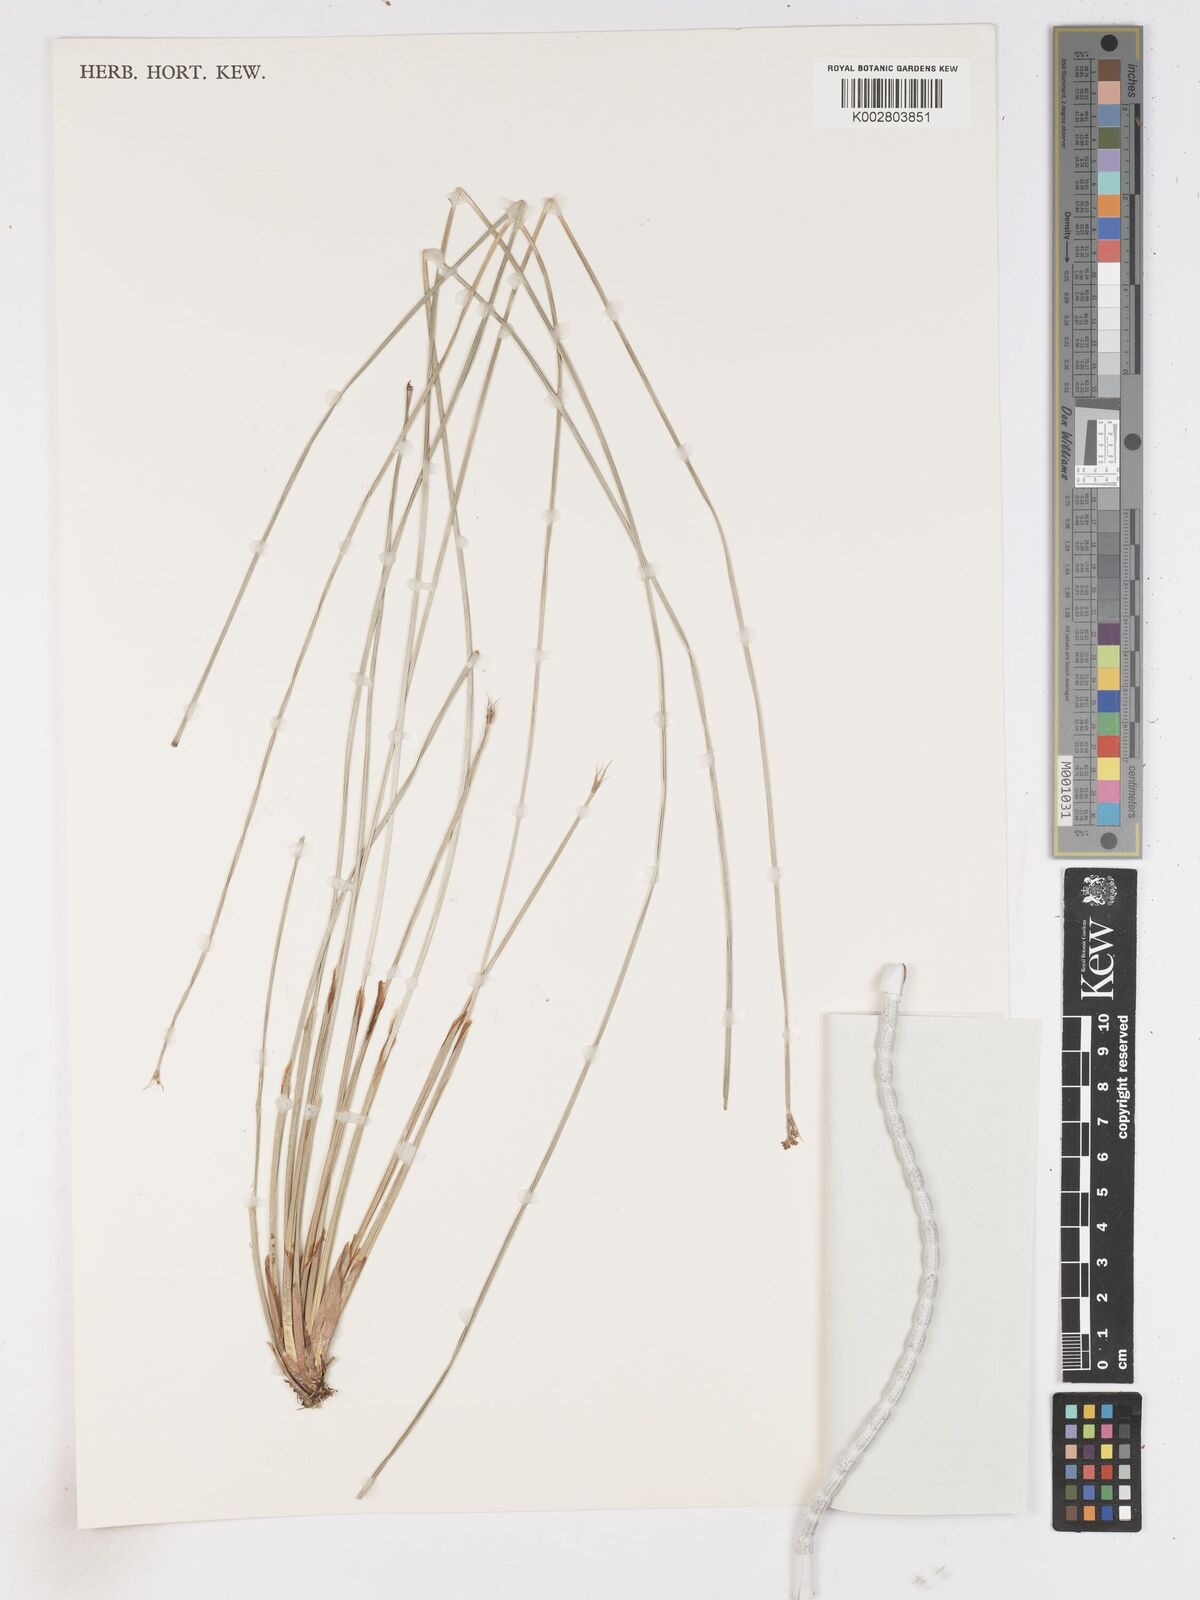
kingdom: Plantae
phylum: Tracheophyta
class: Liliopsida
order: Poales
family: Cyperaceae
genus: Fimbristylis
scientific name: Fimbristylis aphylla
